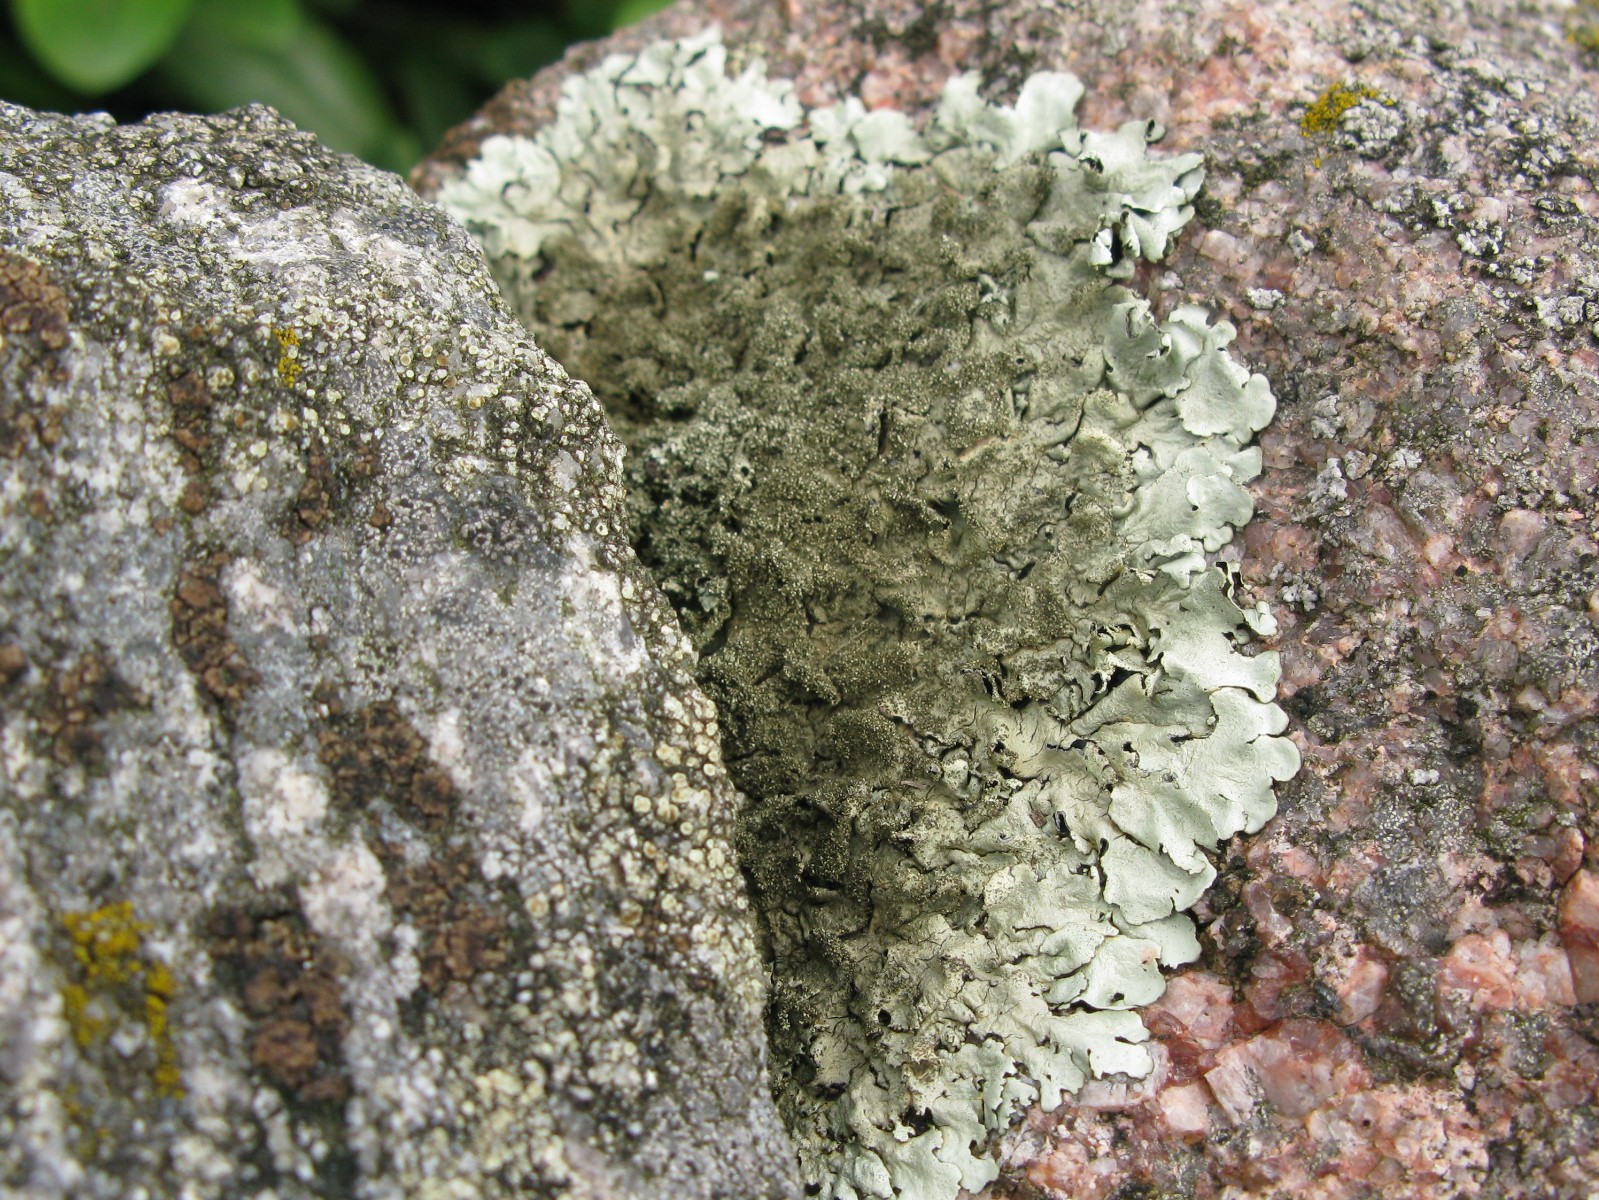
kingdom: Fungi
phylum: Ascomycota
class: Lecanoromycetes
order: Lecanorales
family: Parmeliaceae
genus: Xanthoparmelia
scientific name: Xanthoparmelia conspersa
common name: messing-skållav
